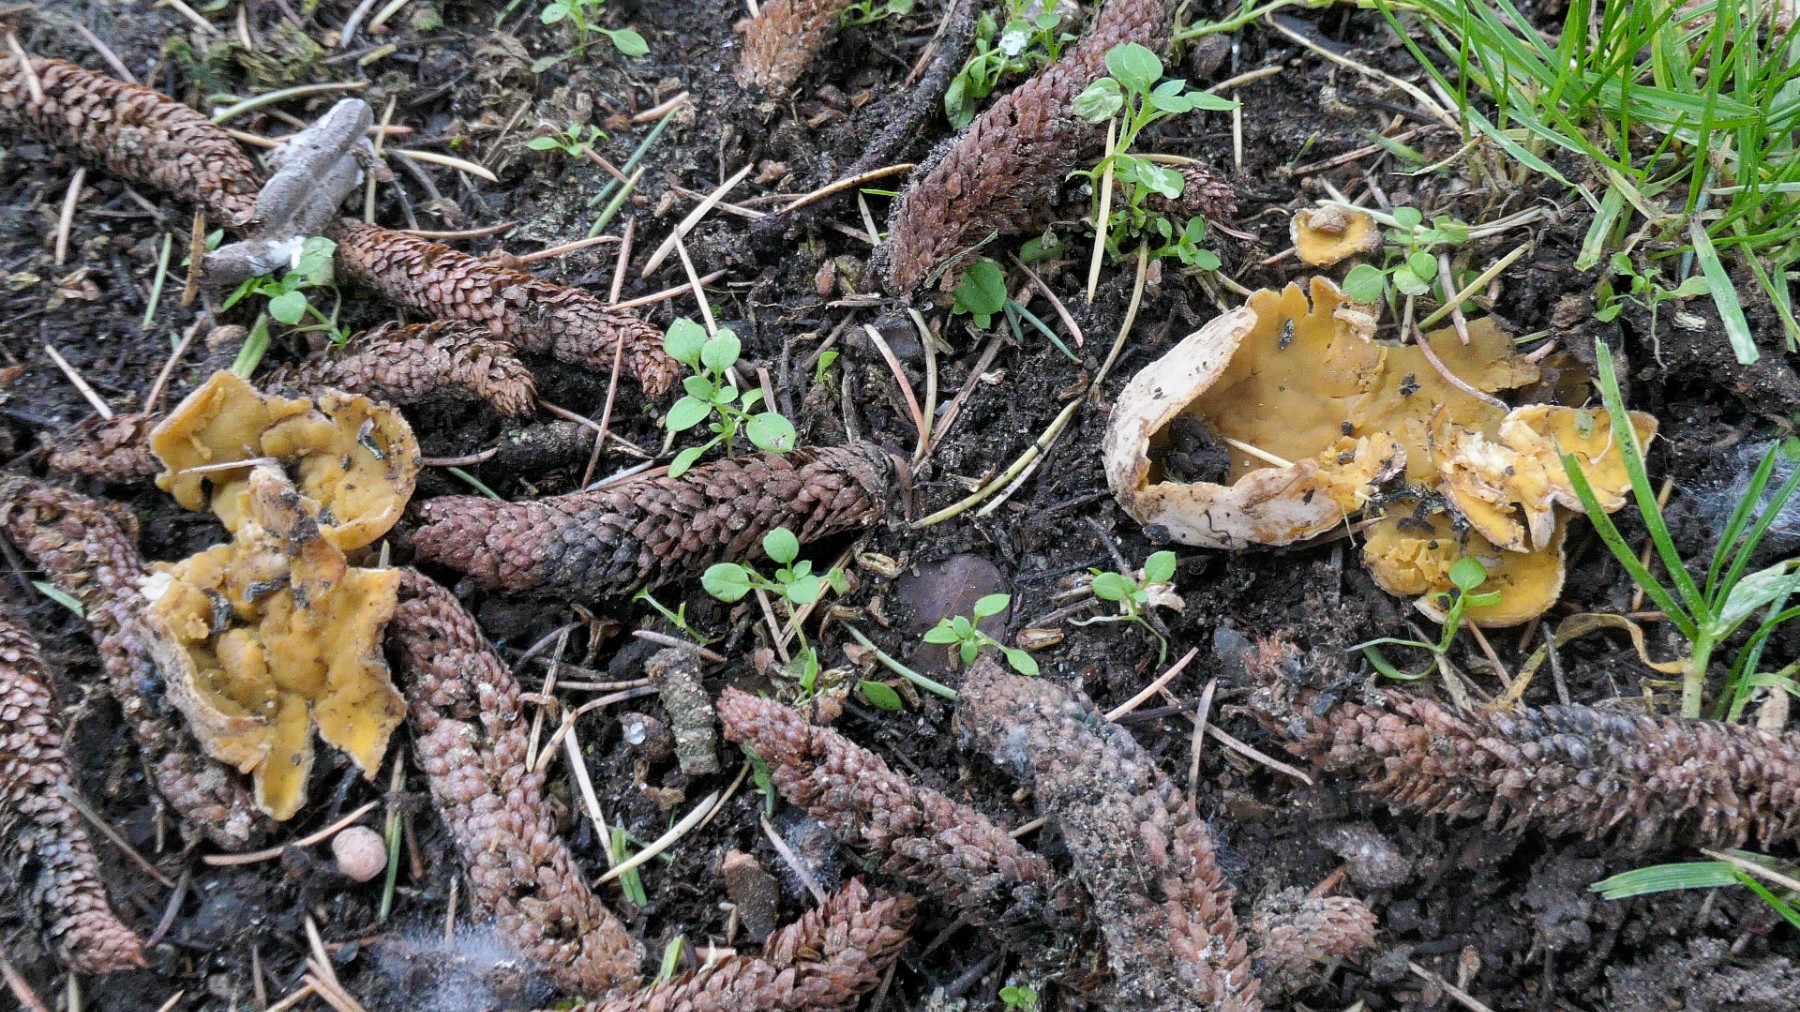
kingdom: Fungi
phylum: Ascomycota
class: Pezizomycetes
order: Pezizales
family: Pyronemataceae
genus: Sowerbyella
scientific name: Sowerbyella radiculata
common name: grøngul rodbæger
